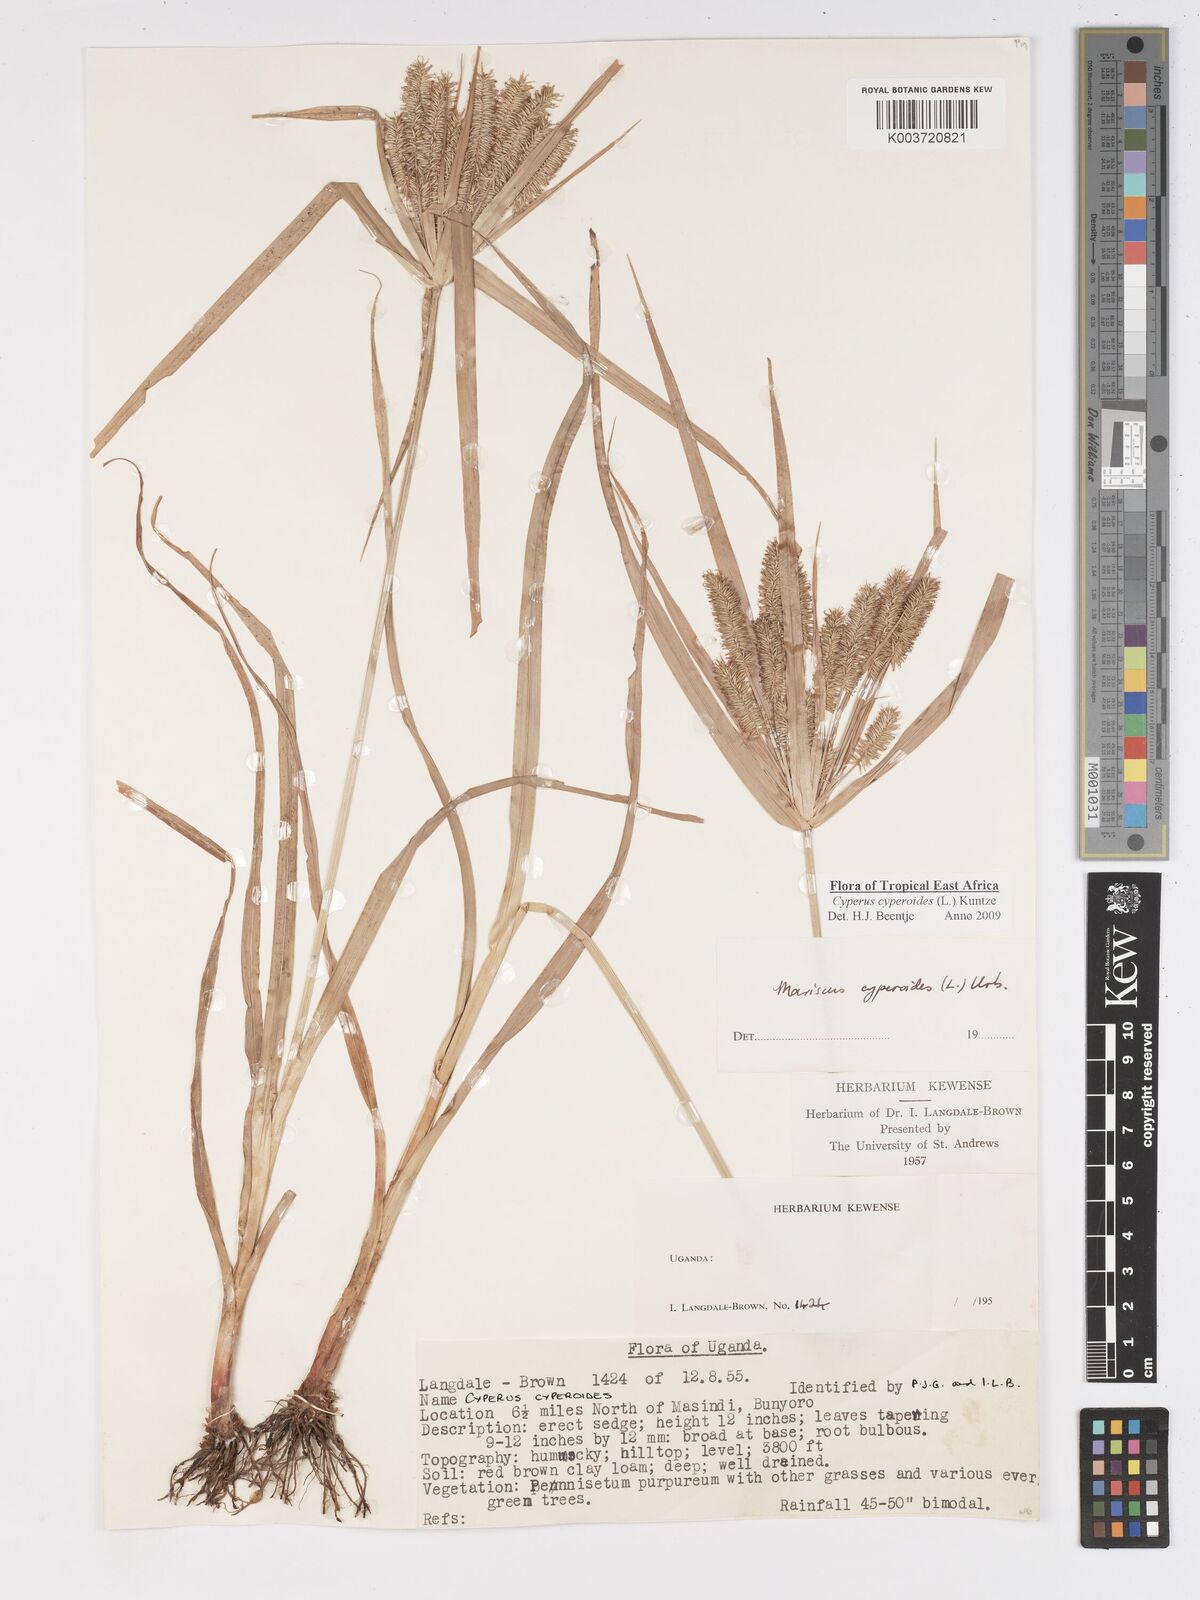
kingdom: Plantae
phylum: Tracheophyta
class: Liliopsida
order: Poales
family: Cyperaceae
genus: Cyperus
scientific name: Cyperus cyperoides
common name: Pacific island flat sedge
